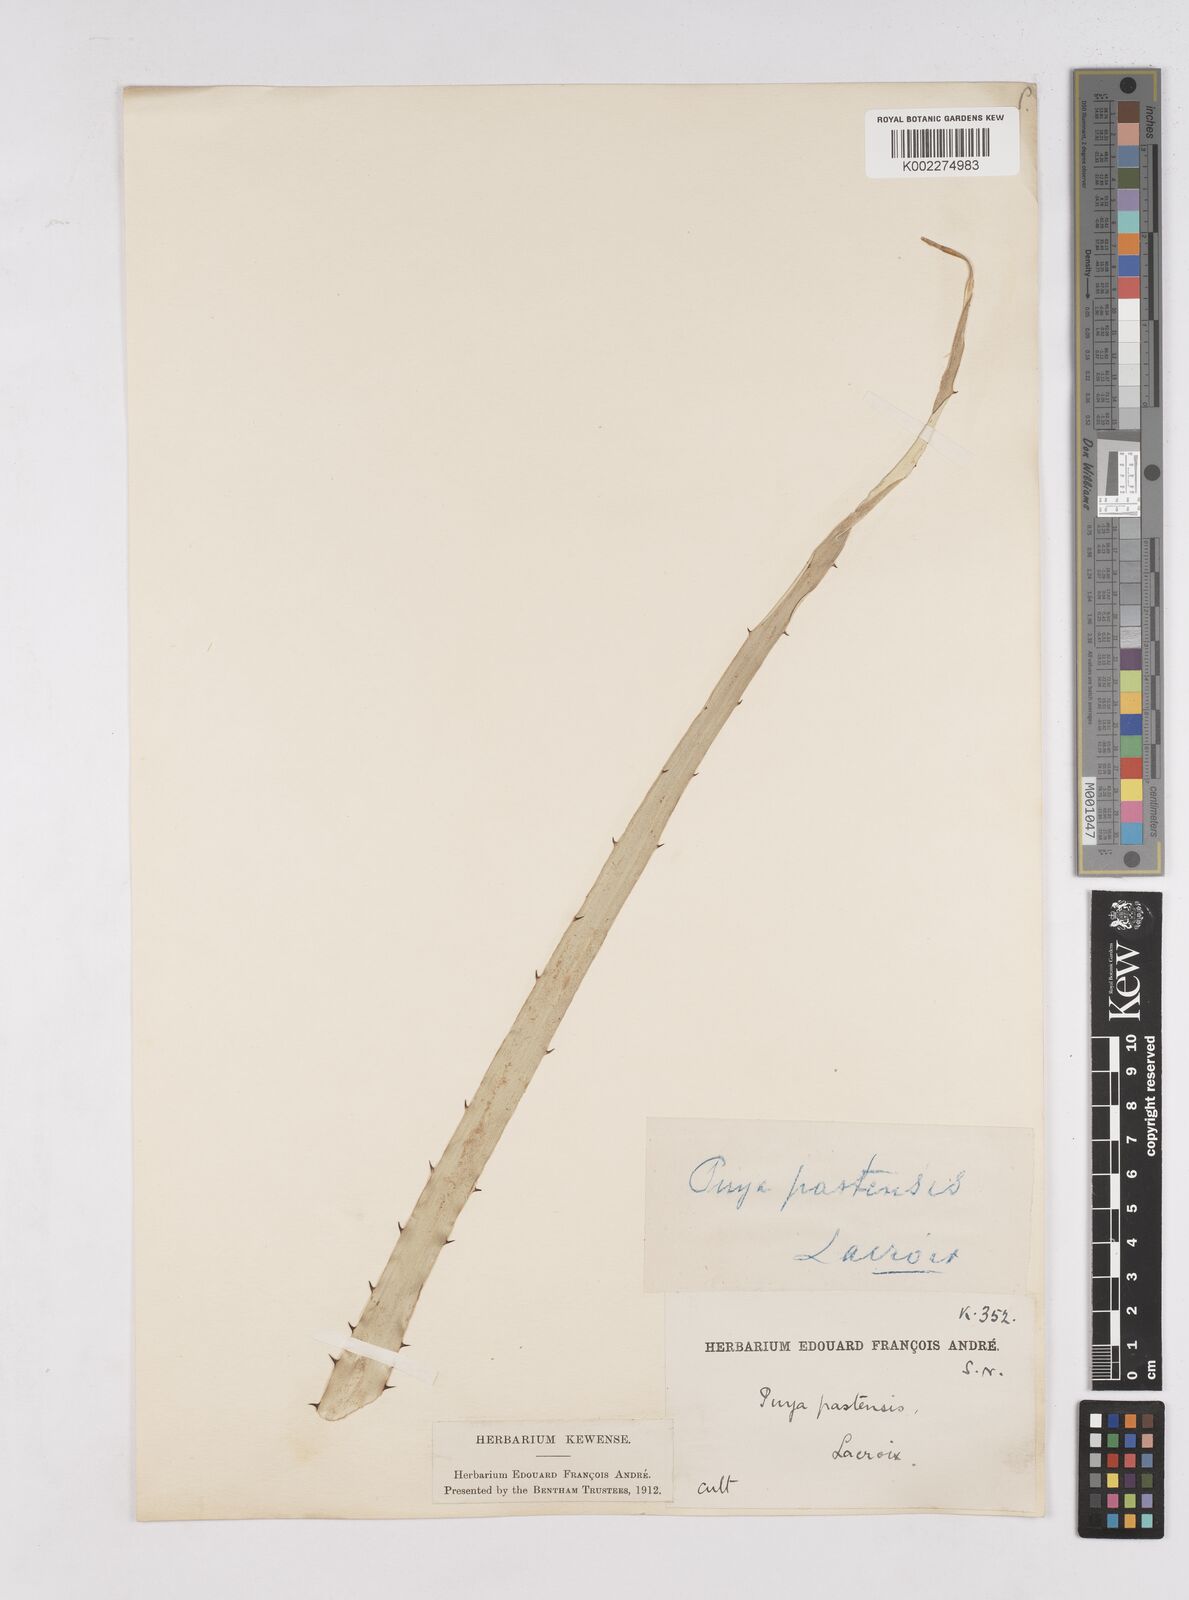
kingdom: Plantae
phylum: Tracheophyta
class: Liliopsida
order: Poales
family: Bromeliaceae
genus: Puya
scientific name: Puya
